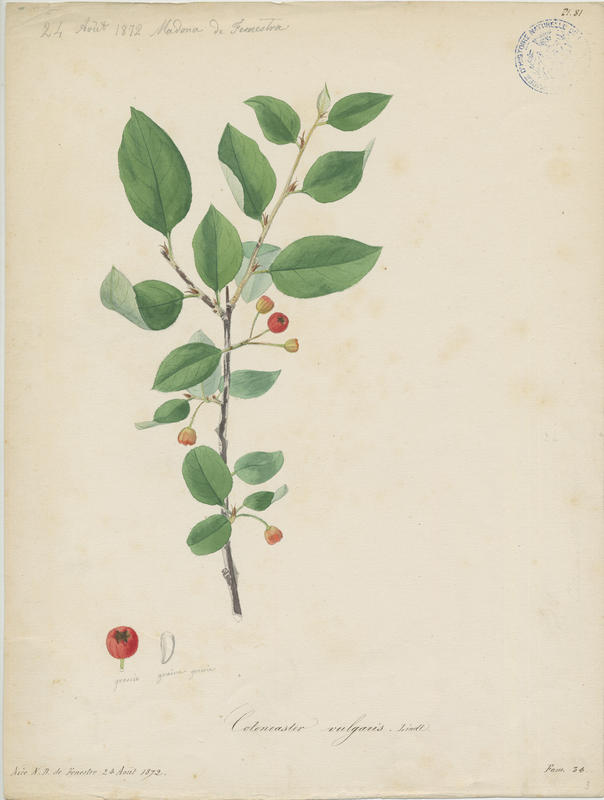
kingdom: Plantae
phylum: Tracheophyta
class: Magnoliopsida
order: Rosales
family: Rosaceae
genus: Cotoneaster
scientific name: Cotoneaster integerrimus
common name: Wild cotoneaster
